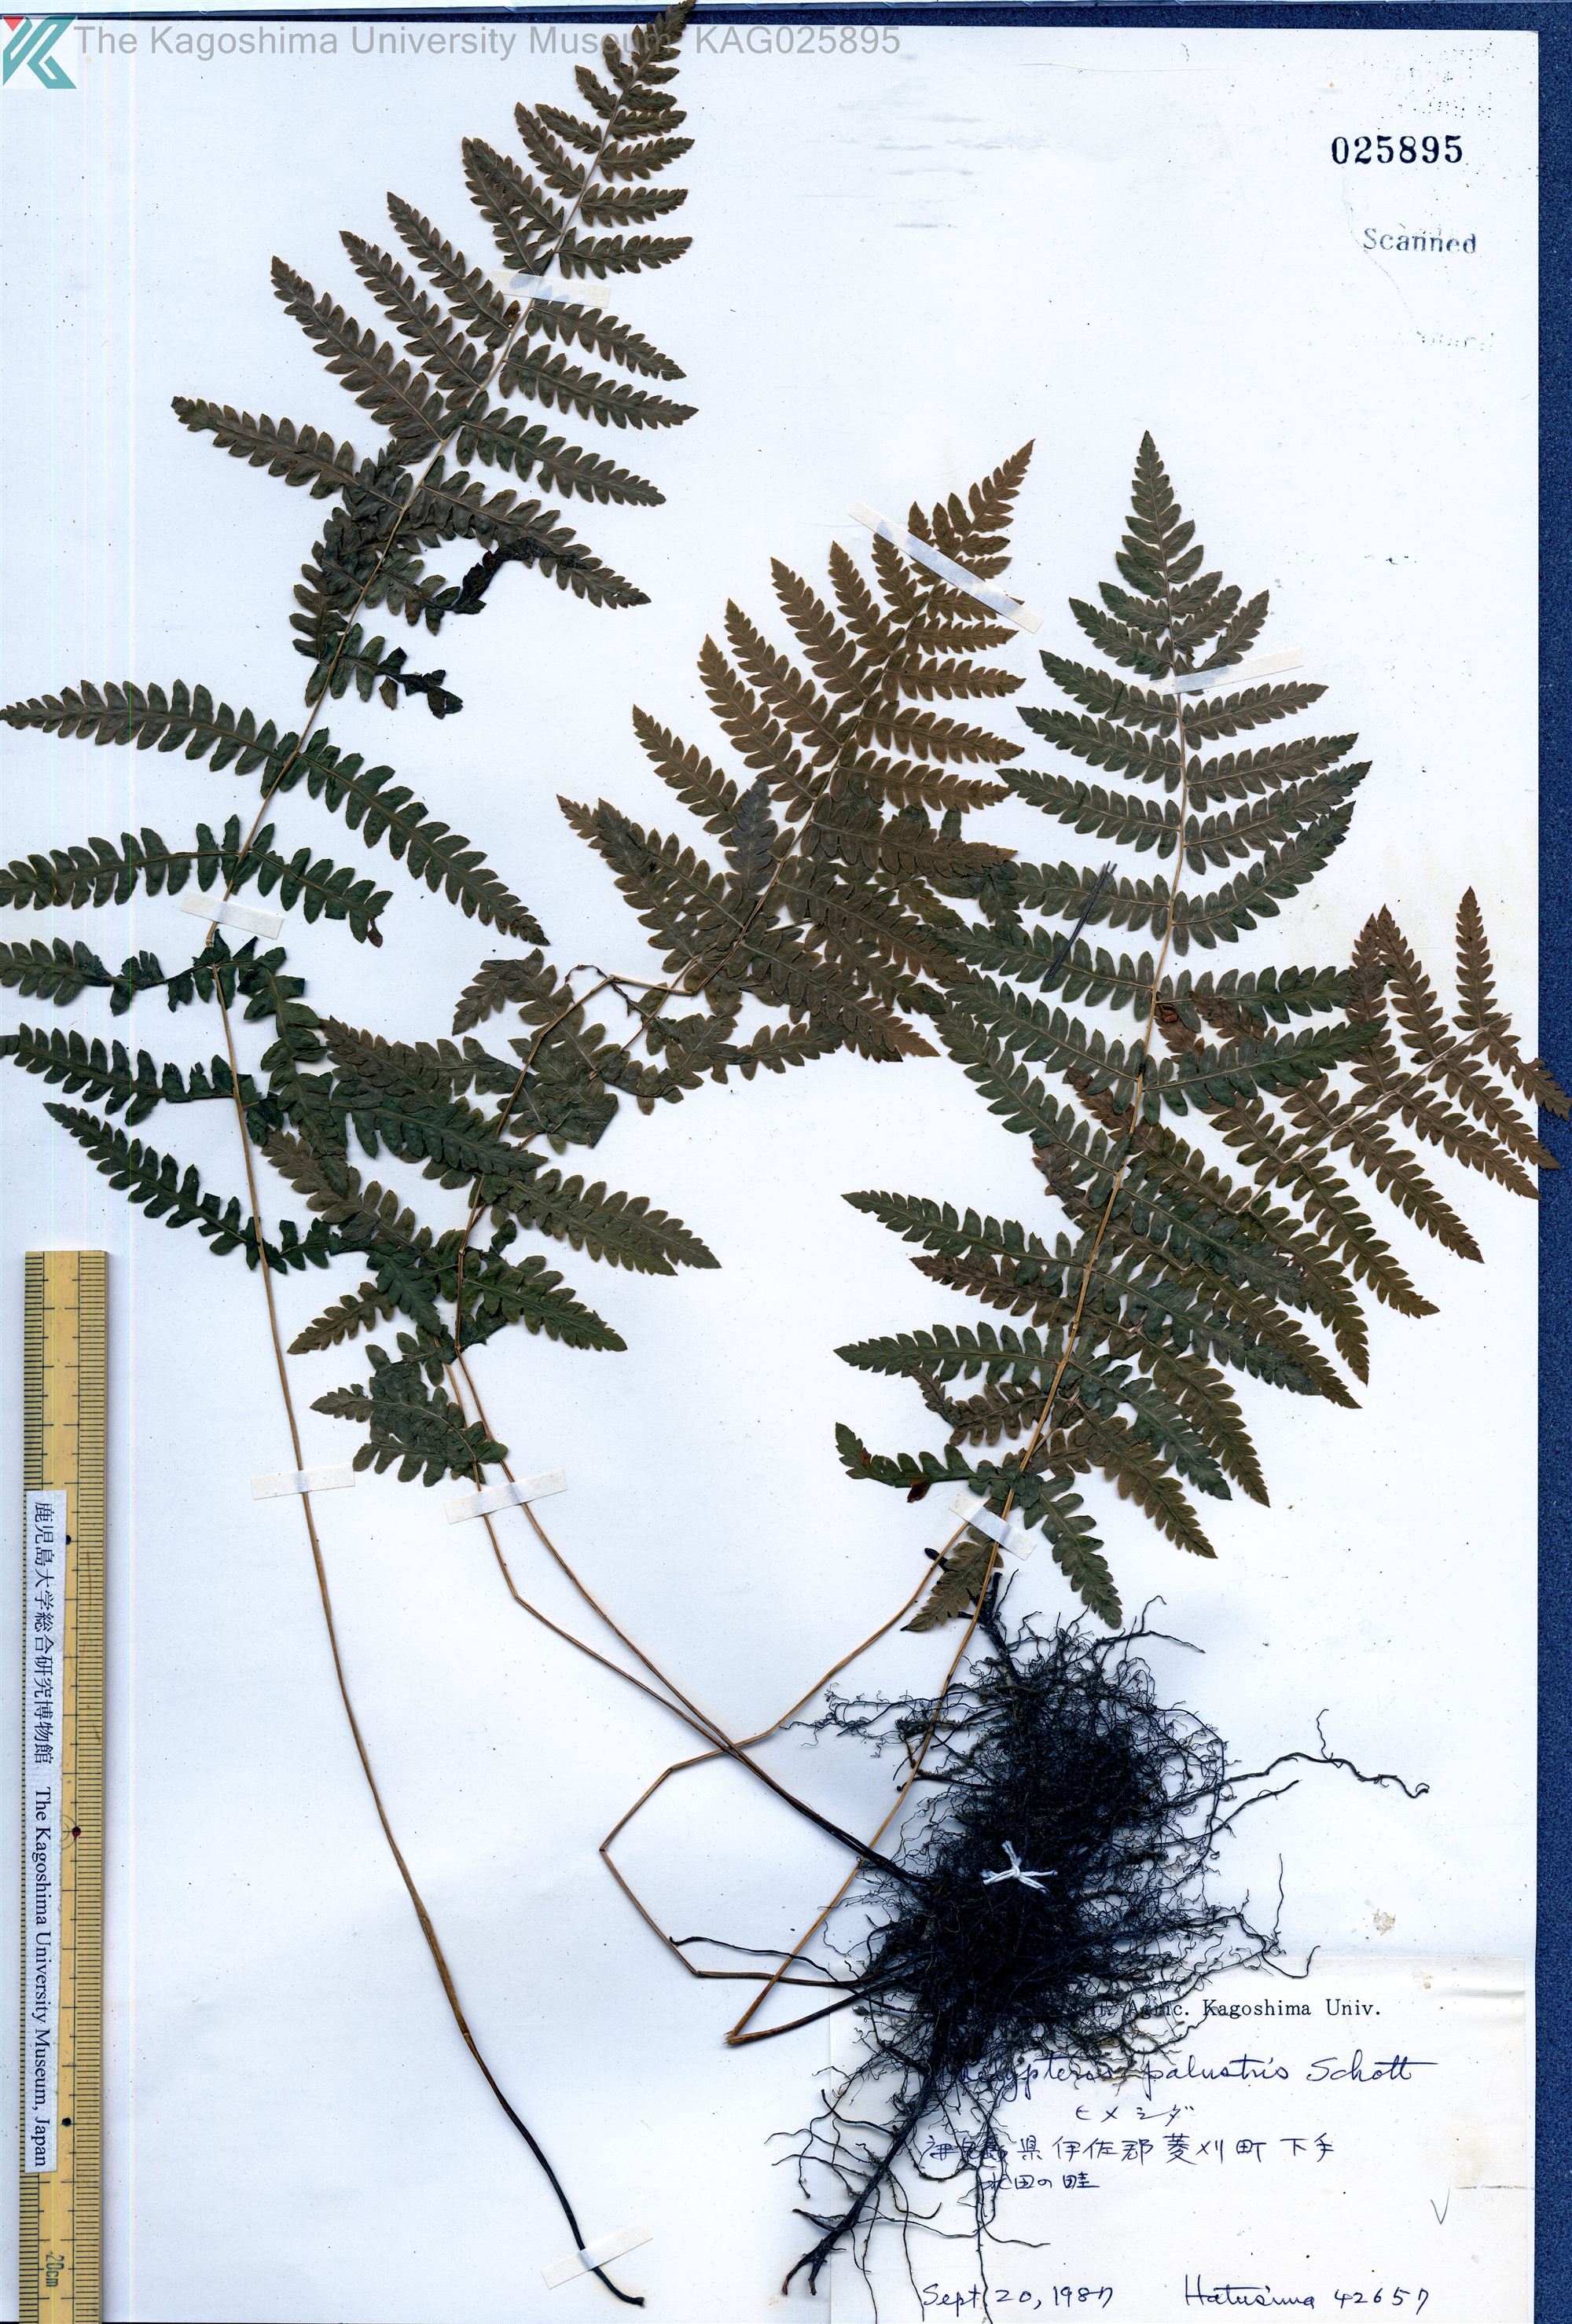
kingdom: Plantae
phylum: Tracheophyta
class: Polypodiopsida
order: Polypodiales
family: Thelypteridaceae
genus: Thelypteris
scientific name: Thelypteris palustris
